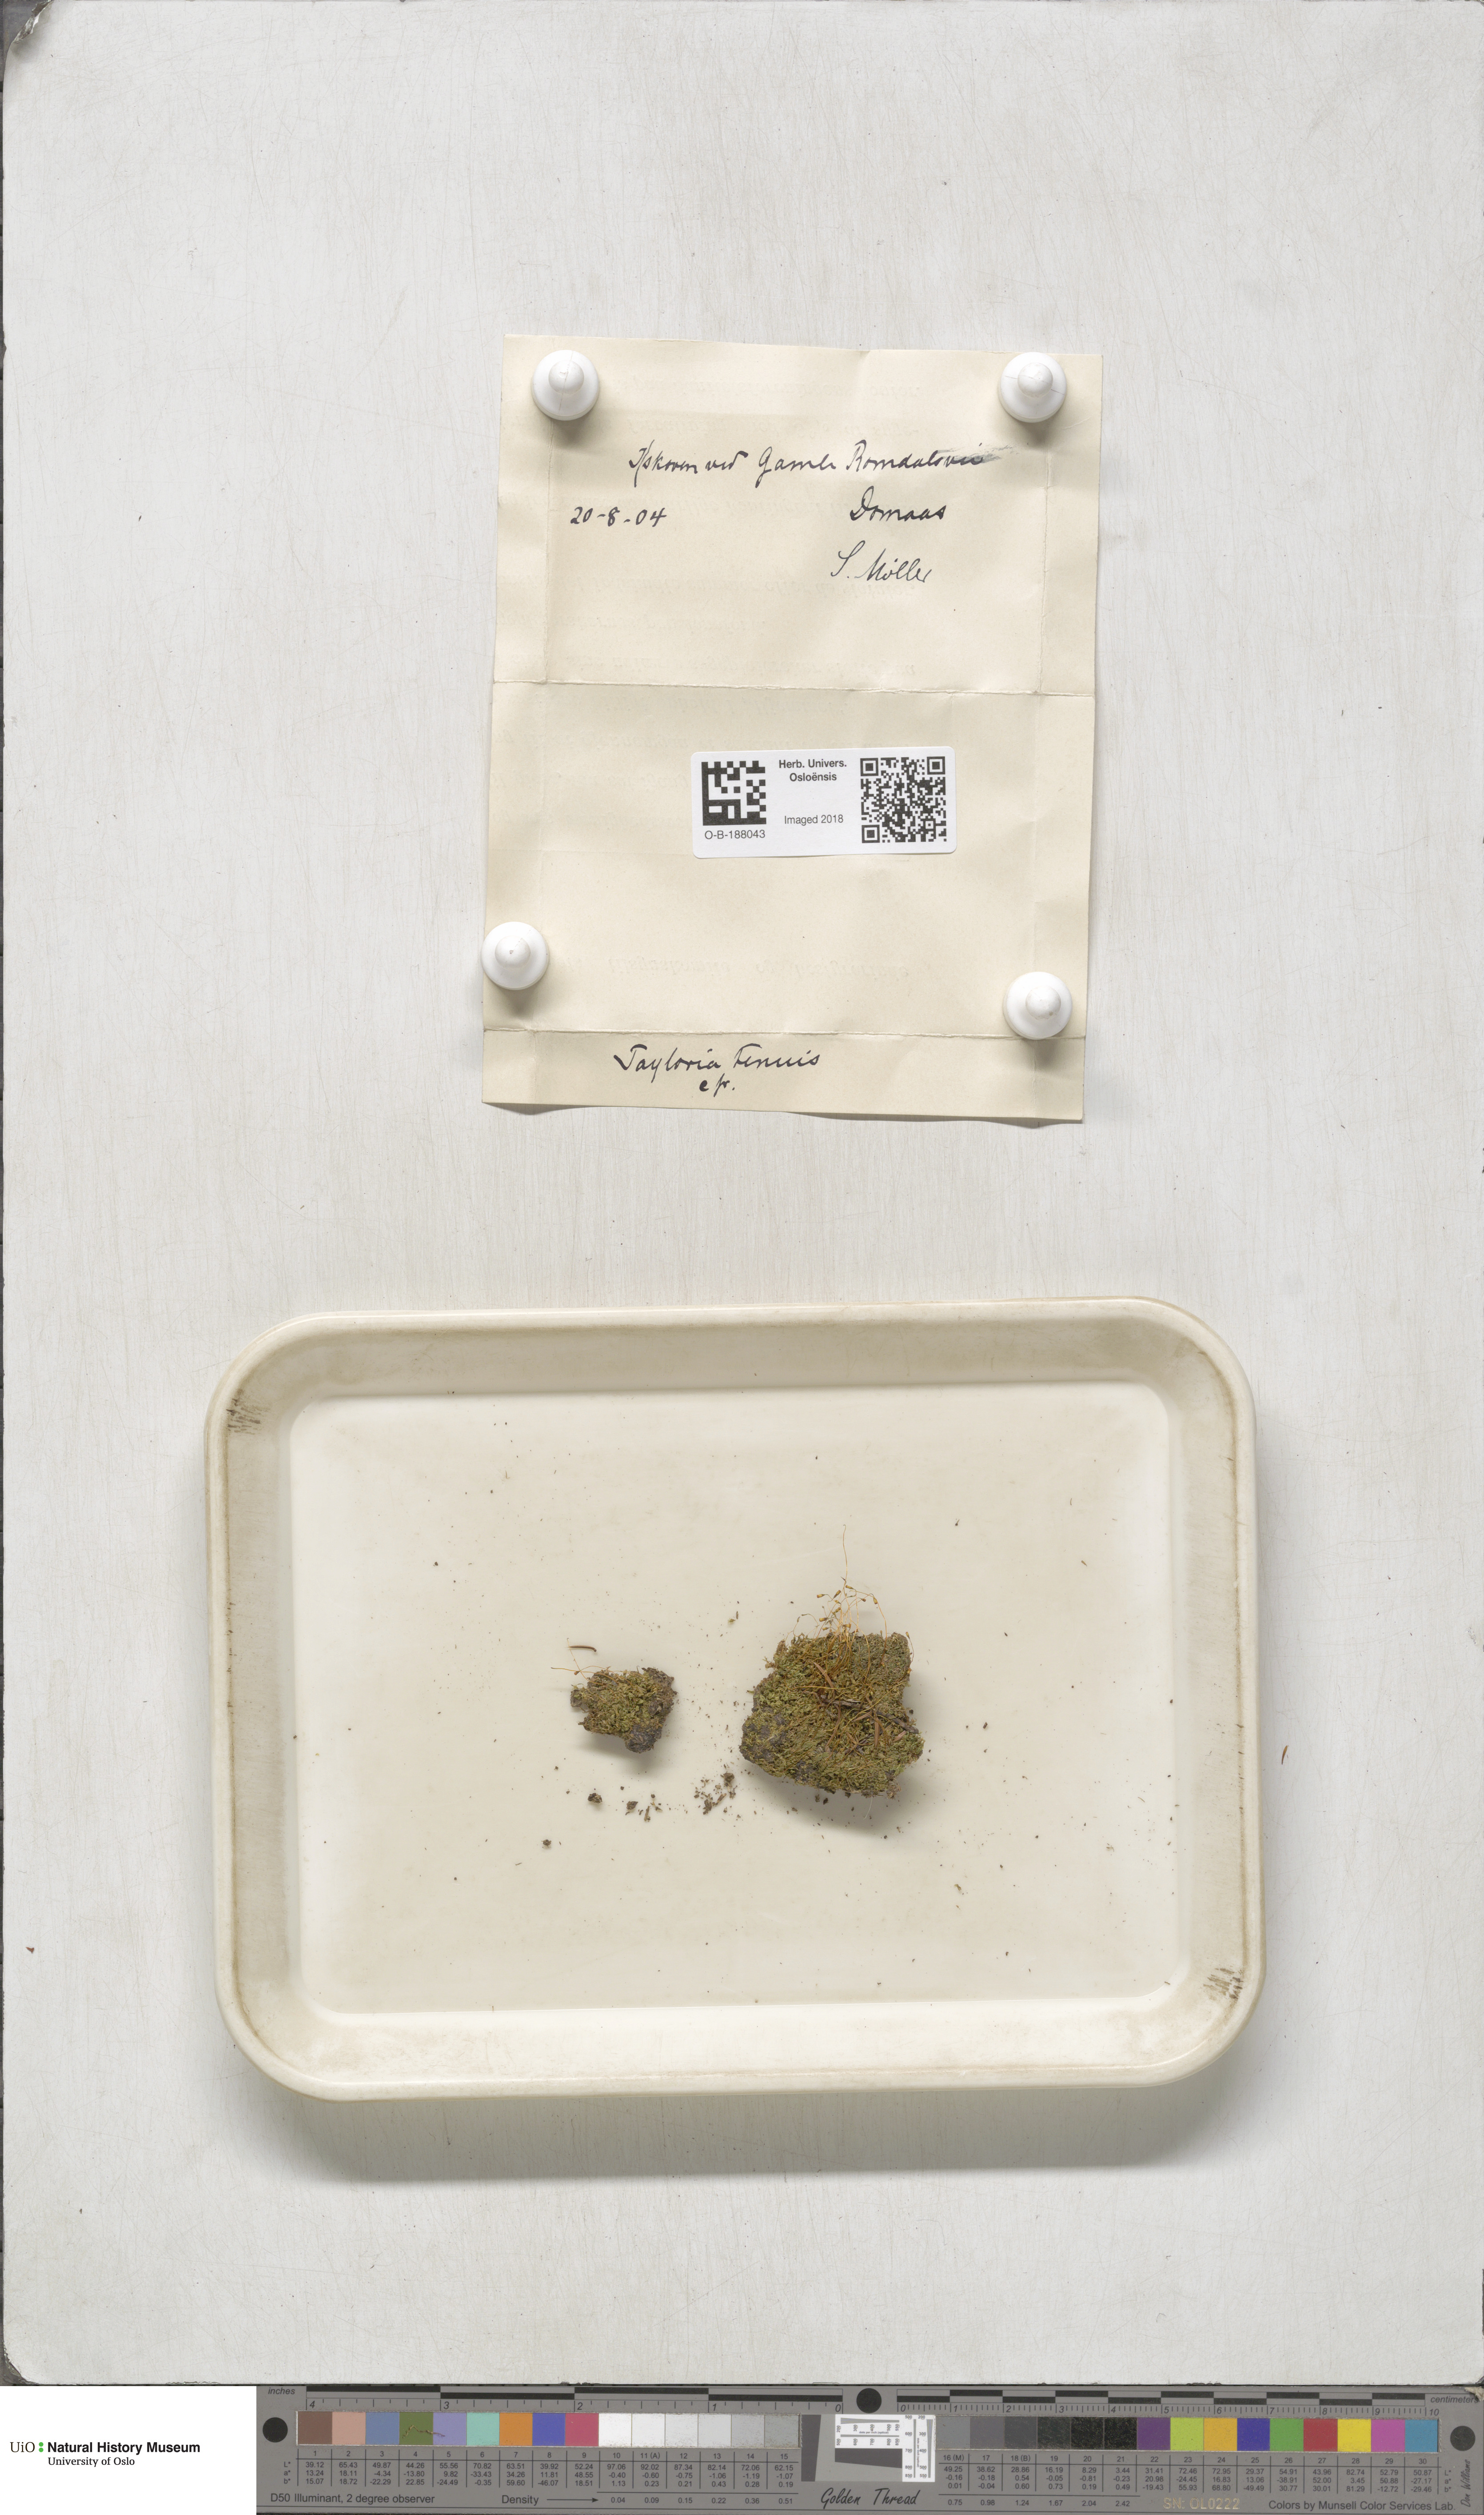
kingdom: Plantae
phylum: Bryophyta
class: Bryopsida
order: Splachnales
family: Splachnaceae
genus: Tayloria
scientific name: Tayloria tenuis
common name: Slender gland-moss
